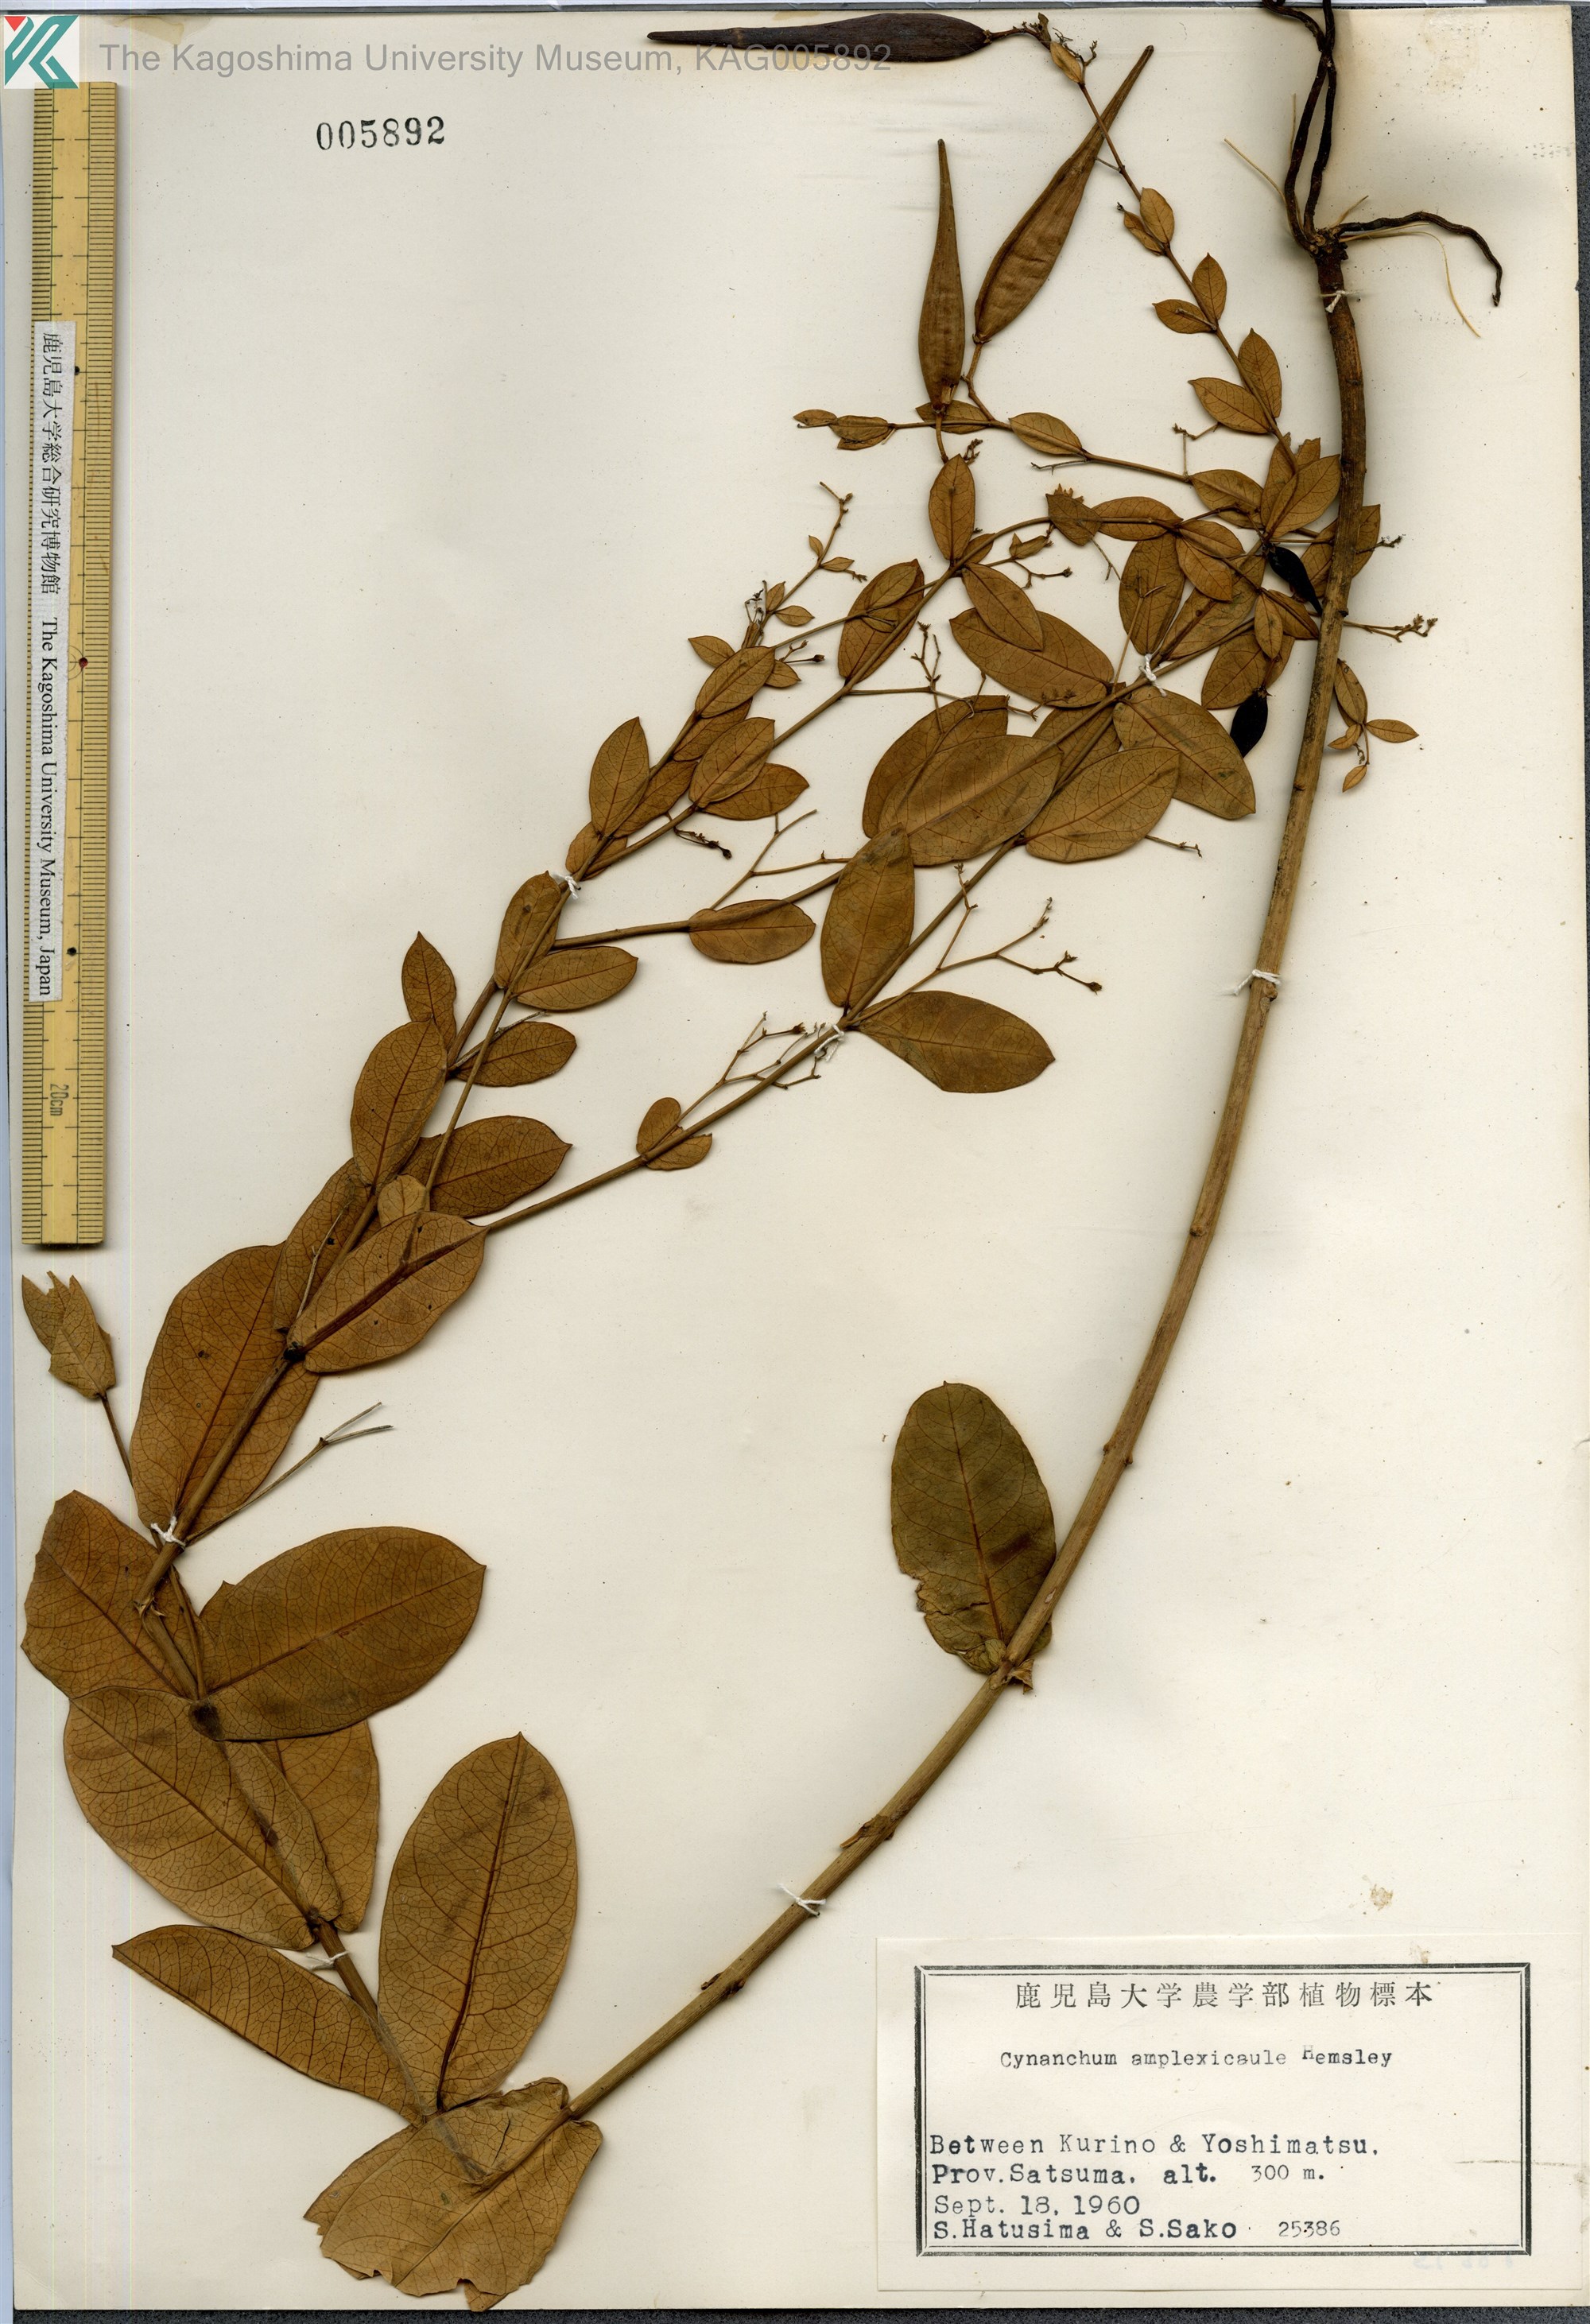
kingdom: Plantae
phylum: Tracheophyta
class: Magnoliopsida
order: Gentianales
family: Apocynaceae
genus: Vincetoxicum
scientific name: Vincetoxicum amplexicaule
